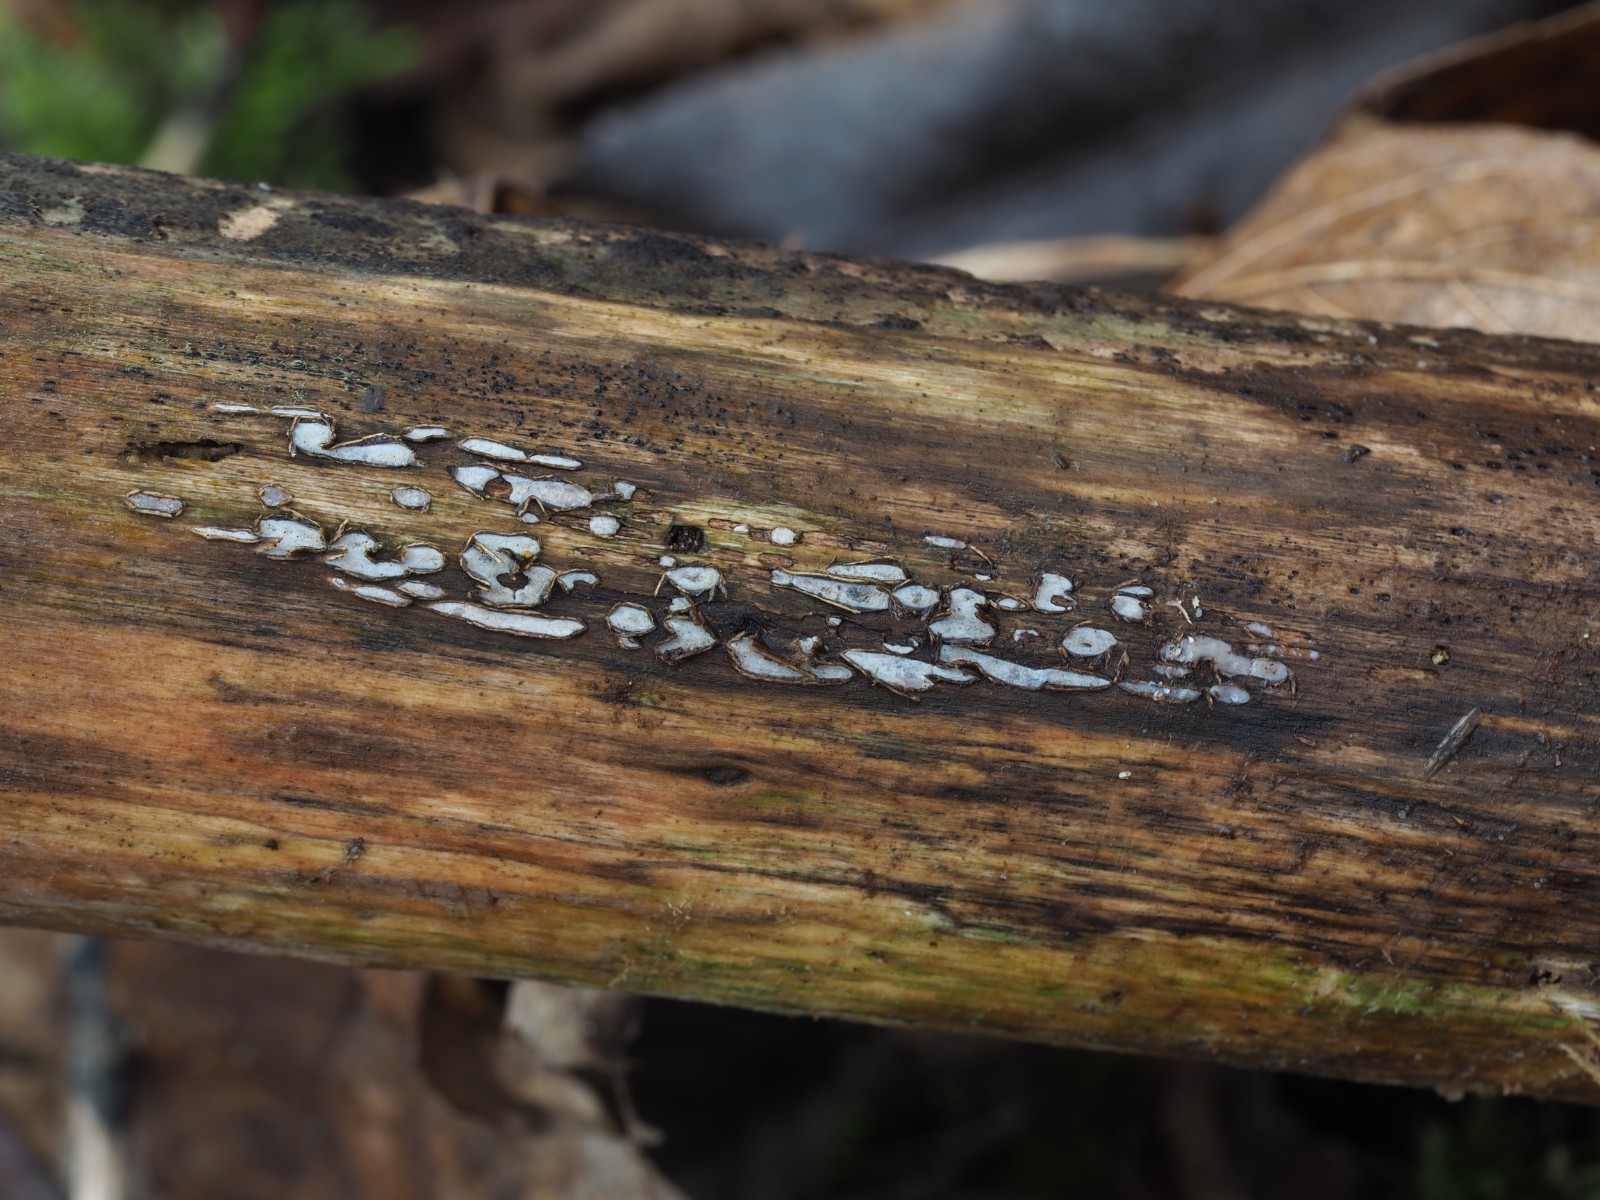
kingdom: Fungi
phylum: Ascomycota
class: Leotiomycetes
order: Chaetomellales
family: Marthamycetaceae
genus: Propolis
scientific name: Propolis farinosa
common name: almindelig vedsprængerskive
